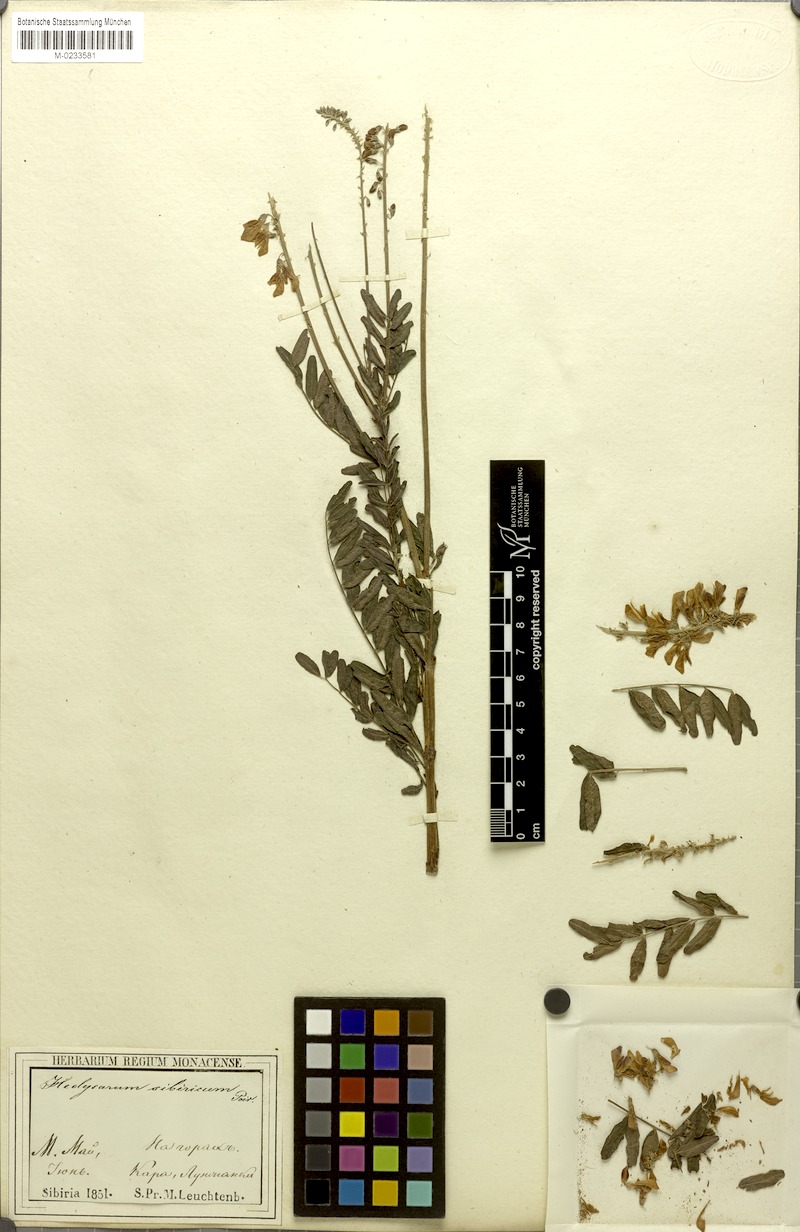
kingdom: Plantae
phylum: Tracheophyta
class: Magnoliopsida
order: Fabales
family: Fabaceae
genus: Hedysarum
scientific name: Hedysarum hedysaroides
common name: Alpine french-honeysuckle
